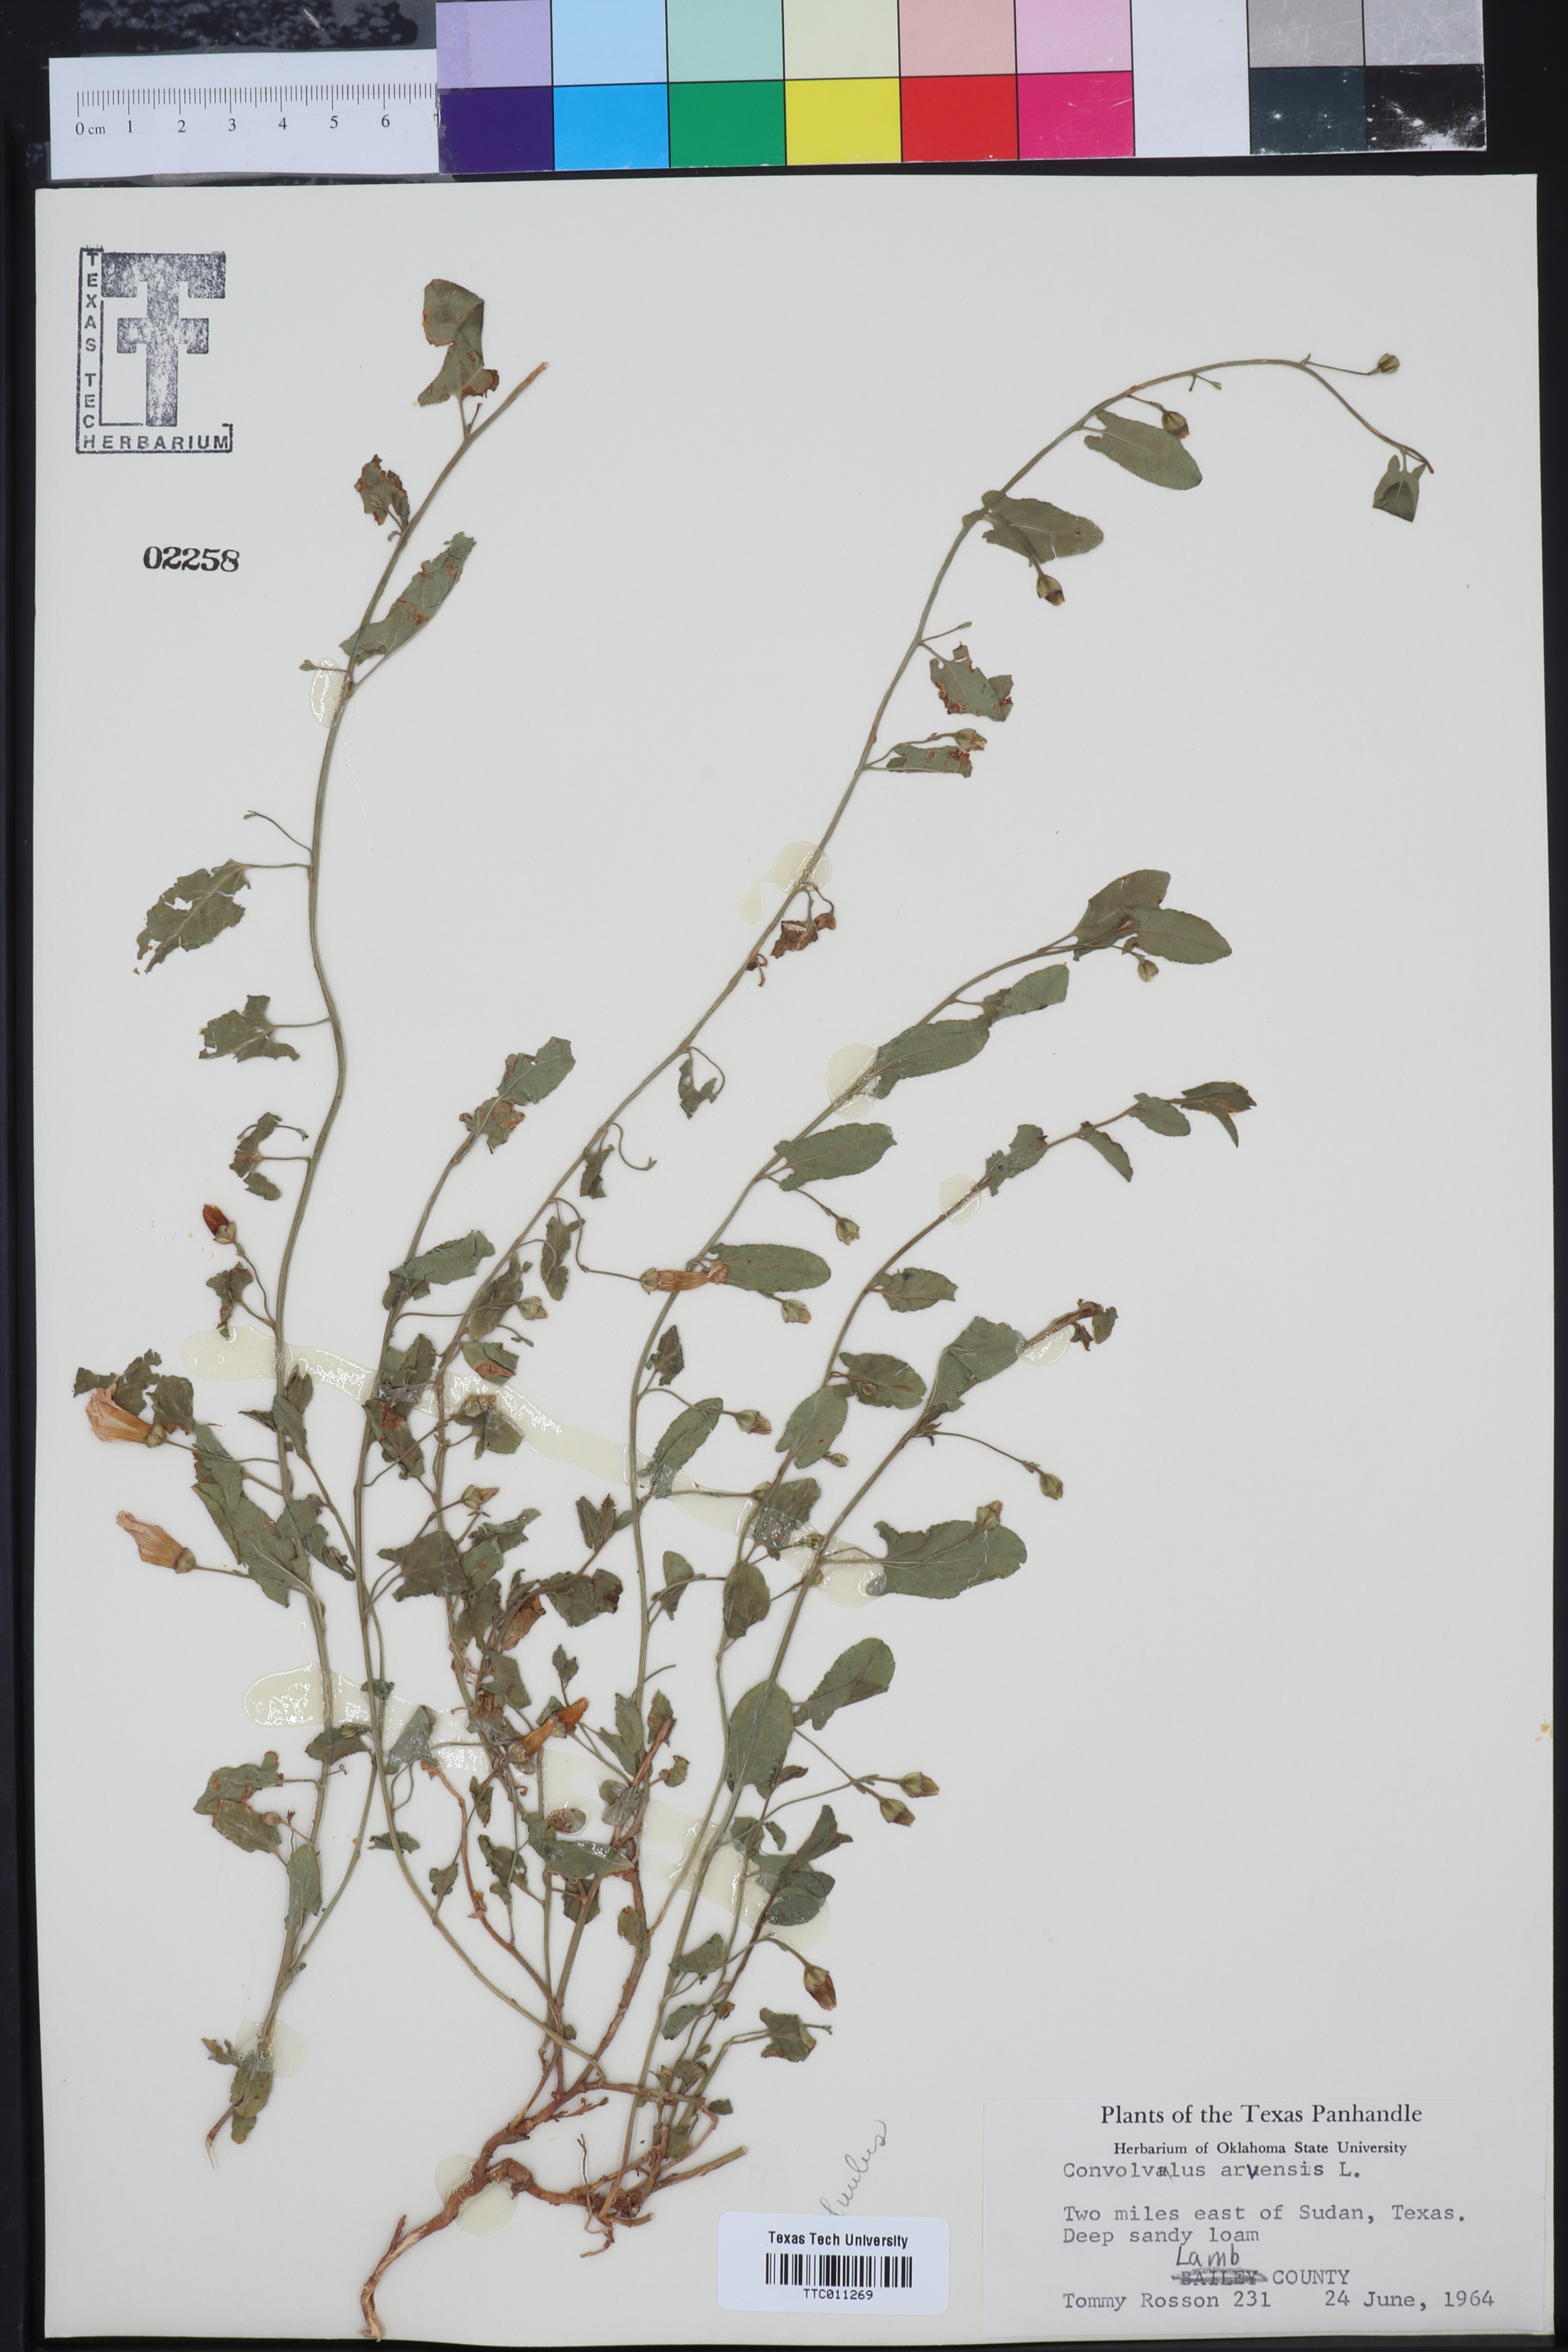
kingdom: Plantae
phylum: Tracheophyta
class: Magnoliopsida
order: Solanales
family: Convolvulaceae
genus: Convolvulus
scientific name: Convolvulus arvensis
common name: Field bindweed
